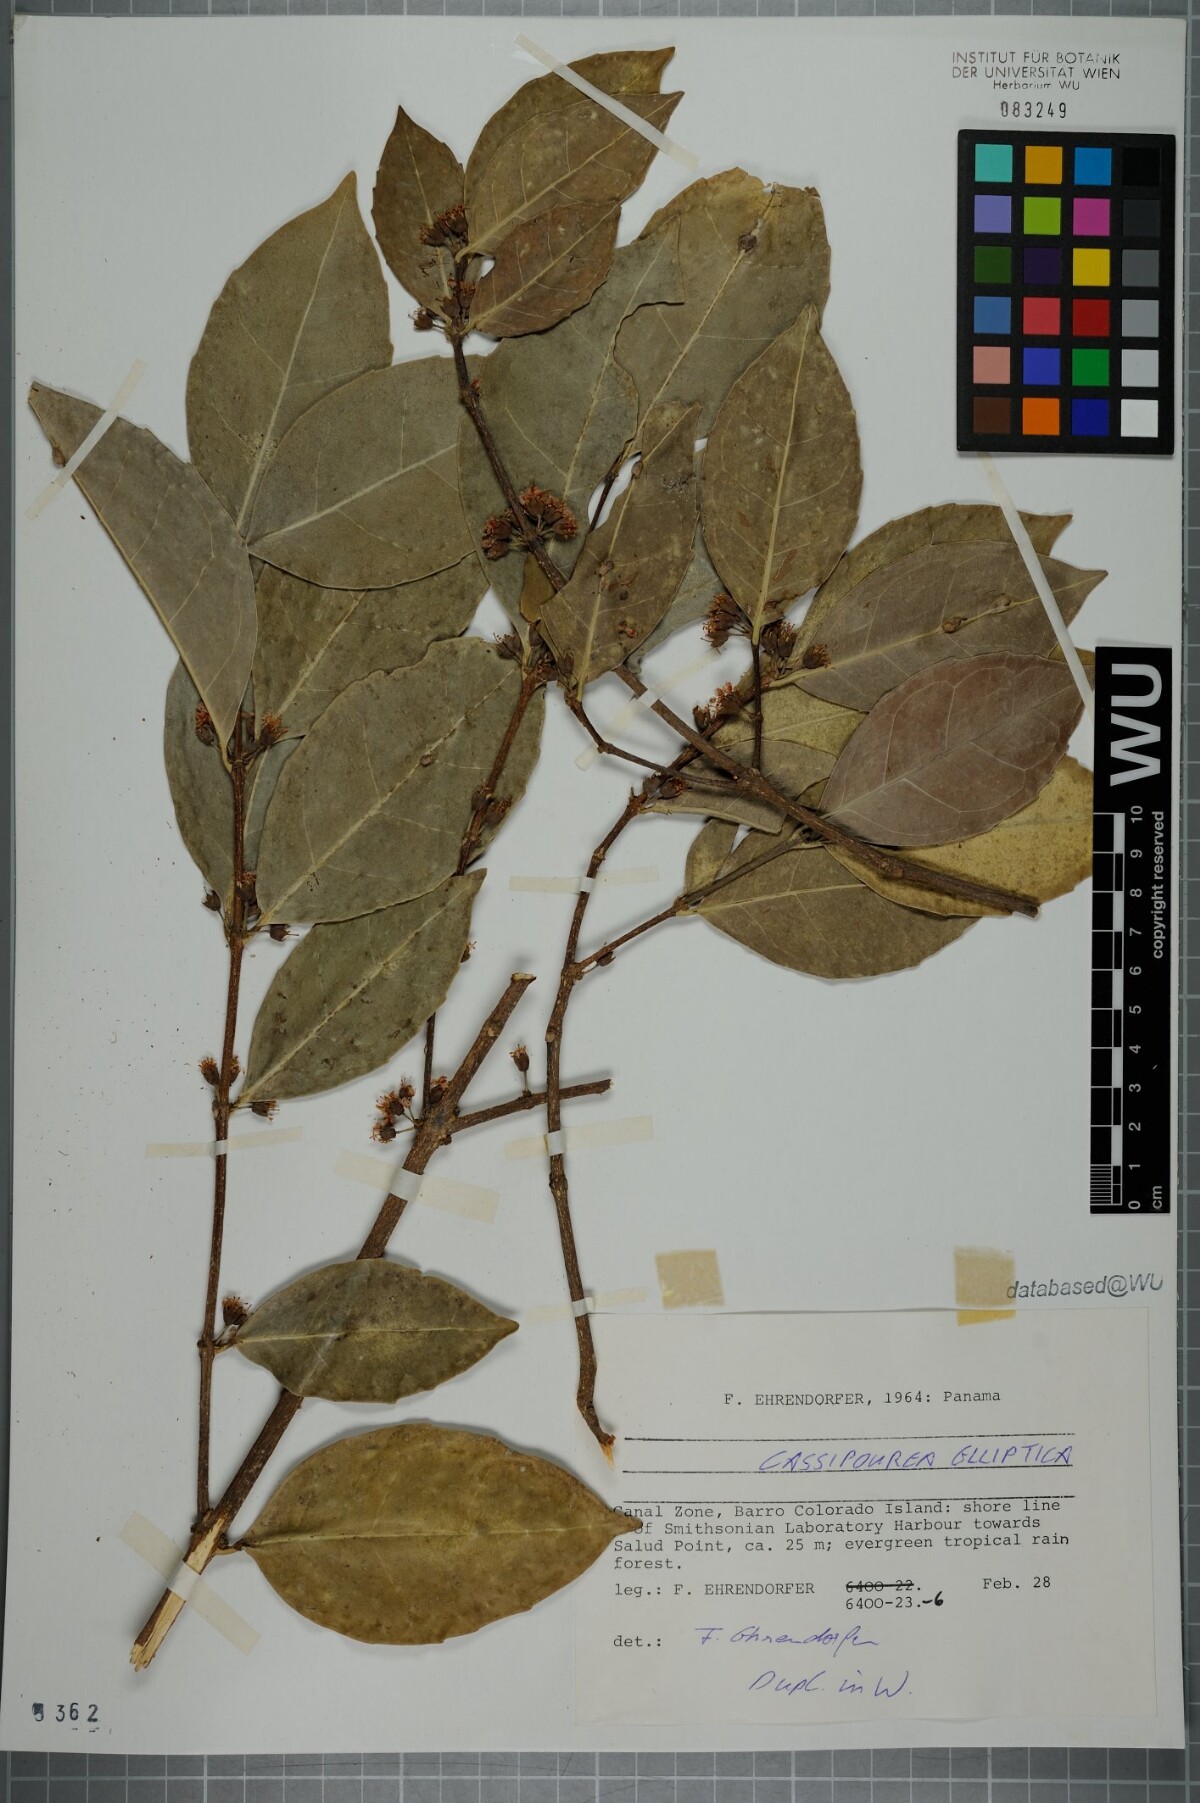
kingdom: Plantae
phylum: Tracheophyta
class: Magnoliopsida
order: Malpighiales
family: Rhizophoraceae
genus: Cassipourea
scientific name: Cassipourea elliptica
